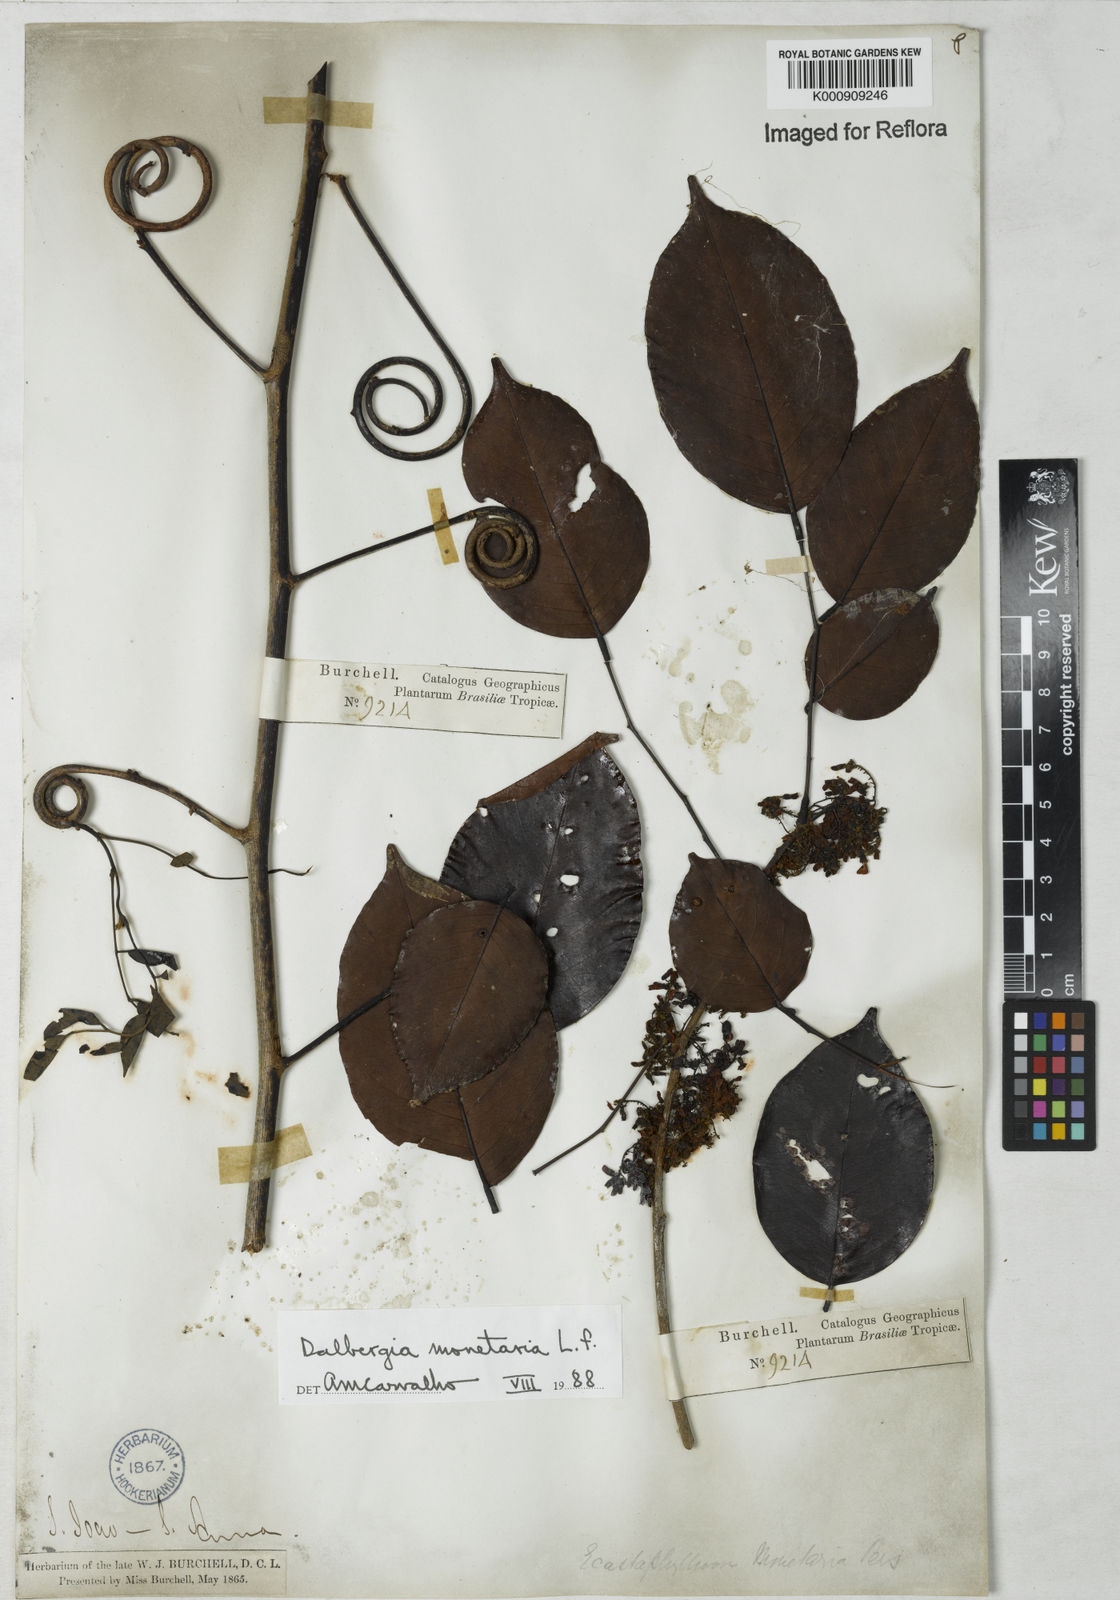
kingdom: Plantae
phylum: Tracheophyta
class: Magnoliopsida
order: Fabales
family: Fabaceae
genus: Dalbergia
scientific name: Dalbergia ovalis
